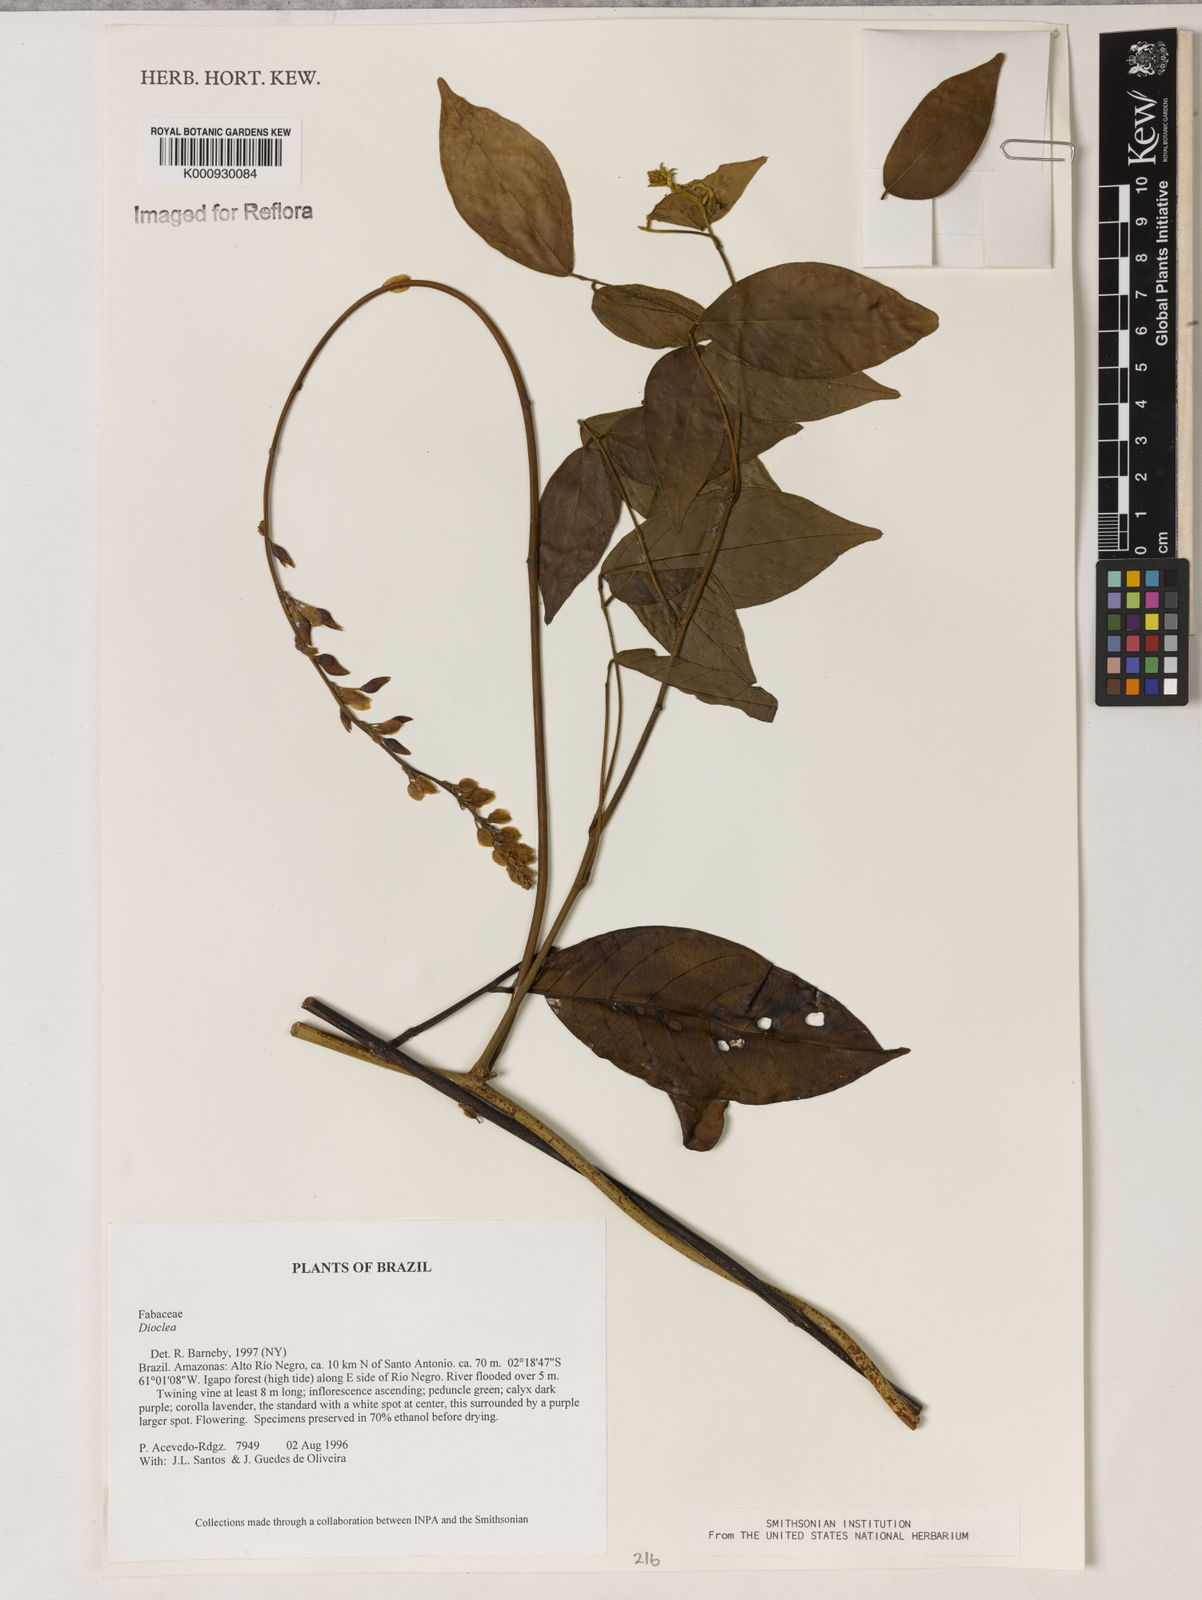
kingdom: Plantae
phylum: Tracheophyta
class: Magnoliopsida
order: Fabales
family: Fabaceae
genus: Dioclea
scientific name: Dioclea
